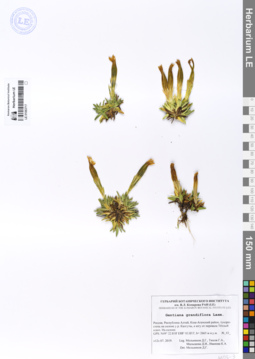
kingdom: Plantae
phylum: Tracheophyta
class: Magnoliopsida
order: Gentianales
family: Gentianaceae
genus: Gentiana
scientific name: Gentiana grandiflora
